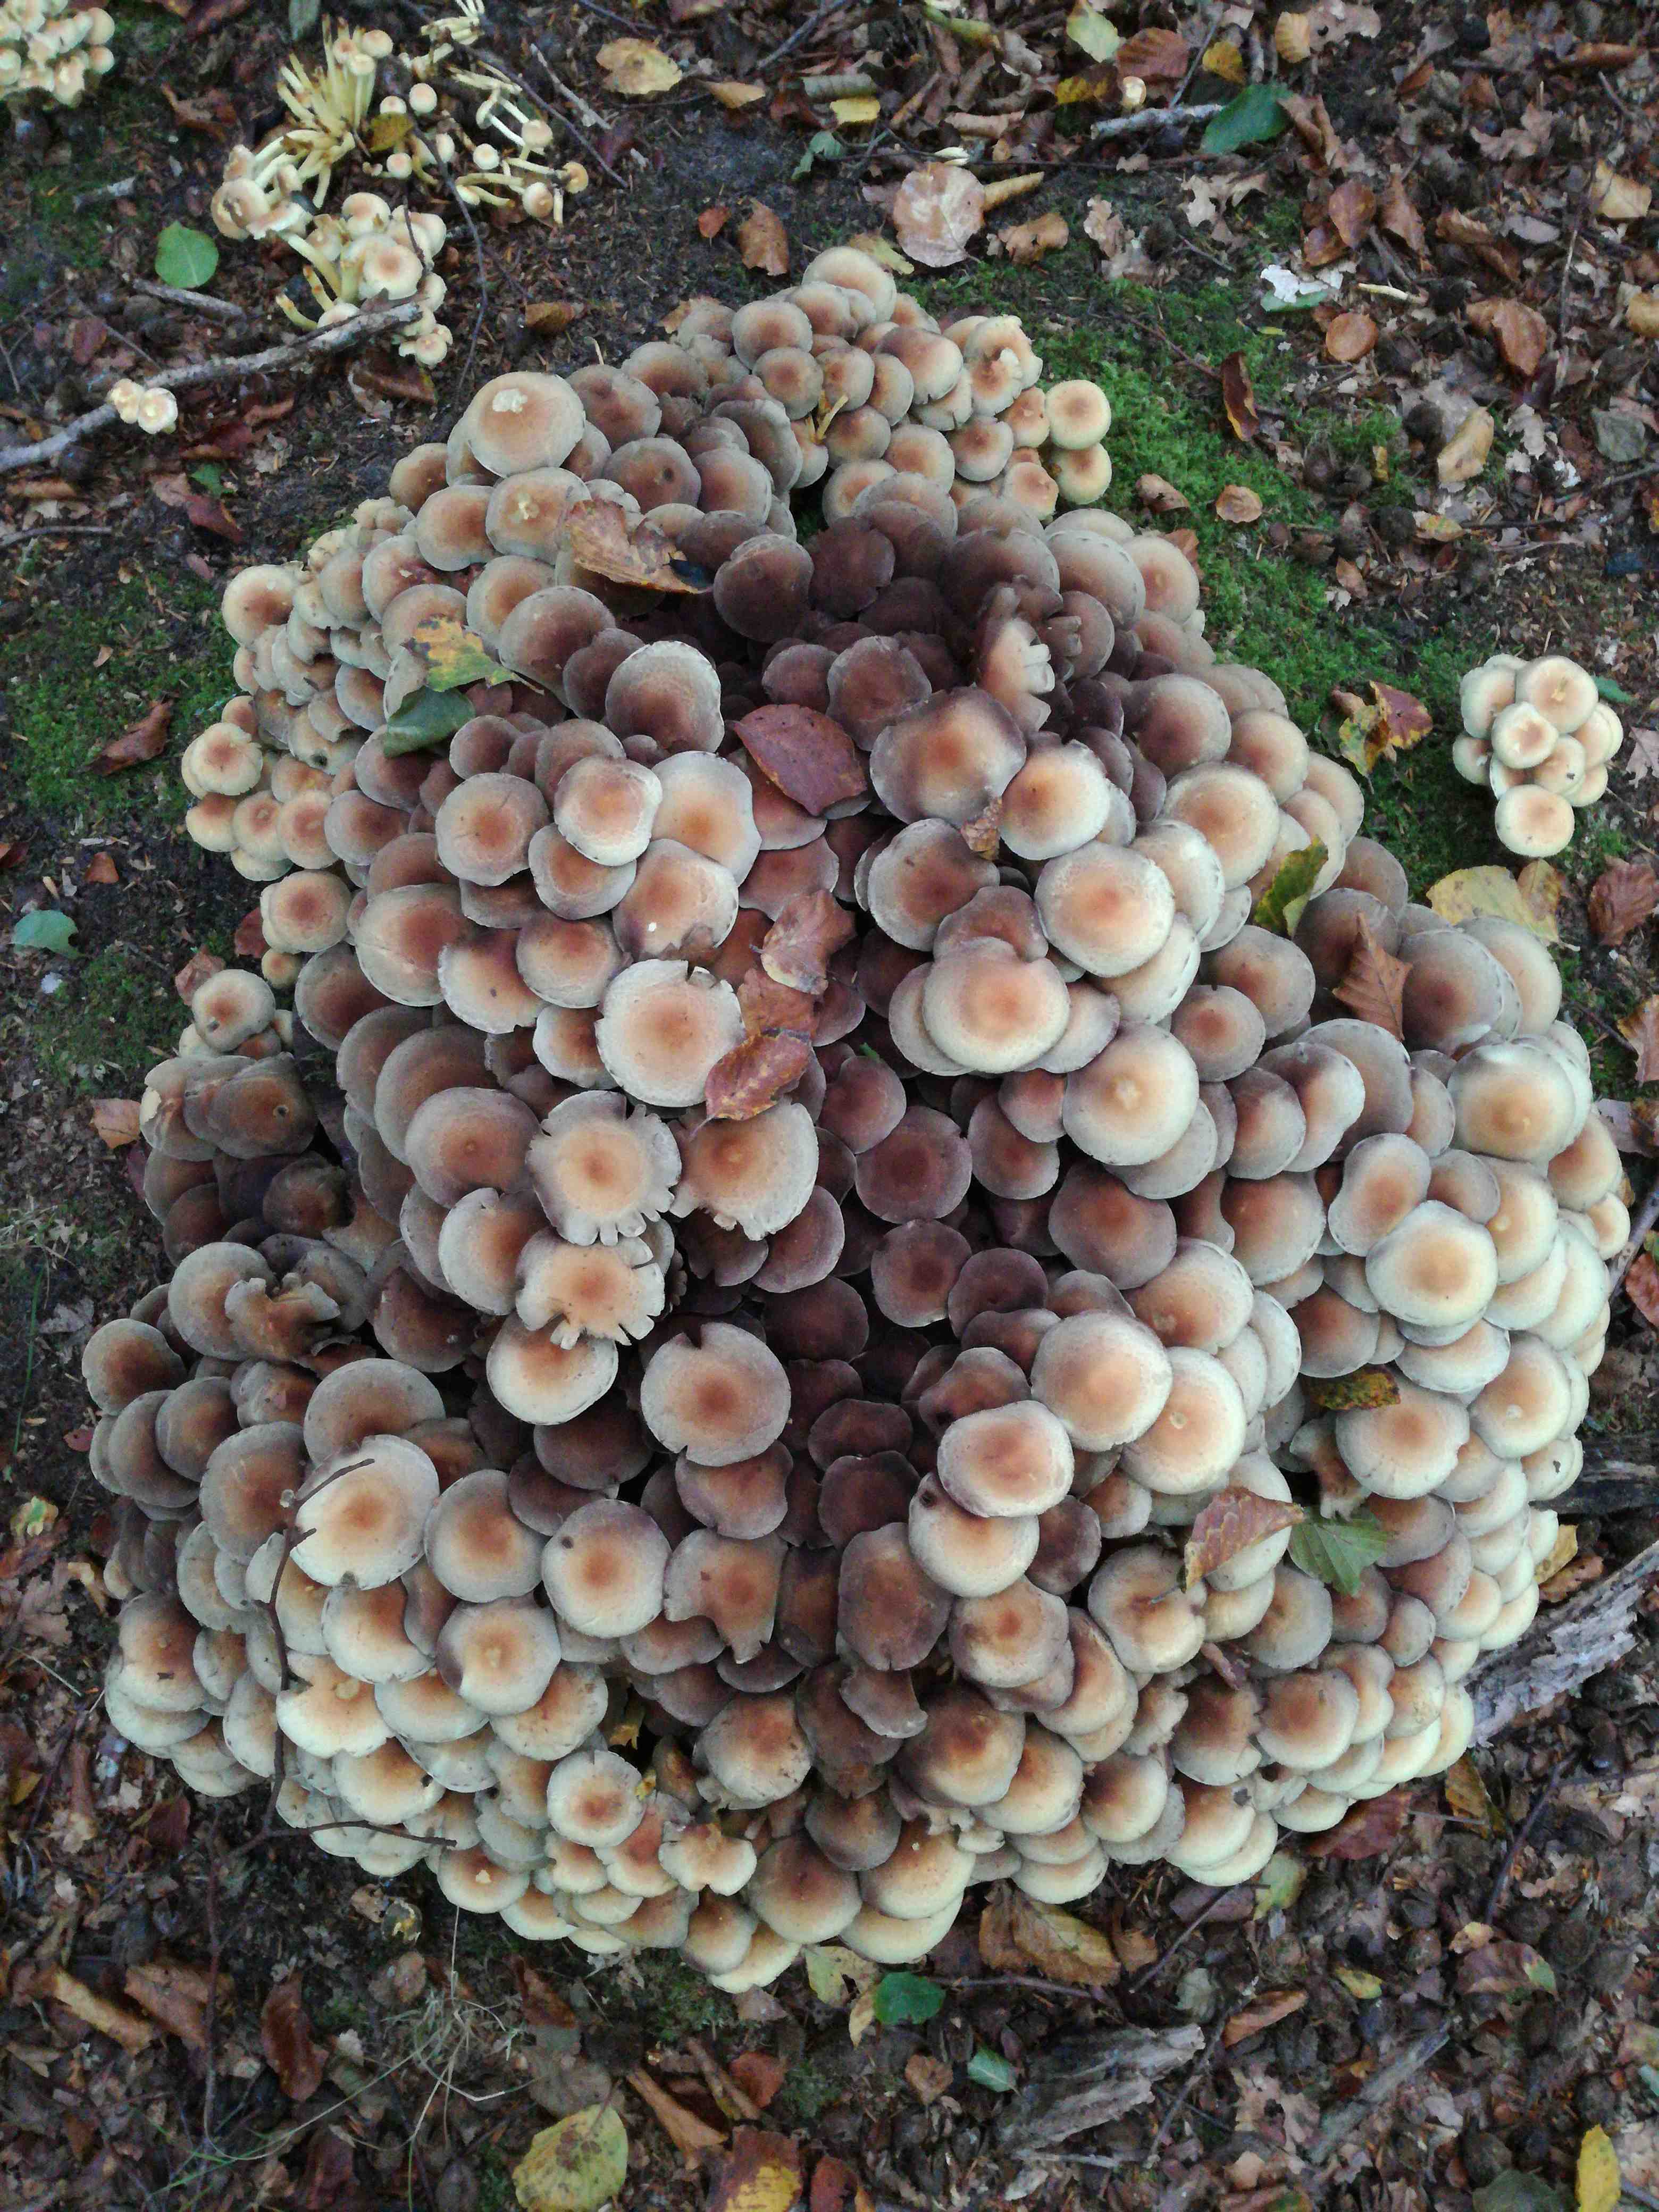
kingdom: Fungi
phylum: Basidiomycota
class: Agaricomycetes
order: Agaricales
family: Strophariaceae
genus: Hypholoma
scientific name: Hypholoma fasciculare
